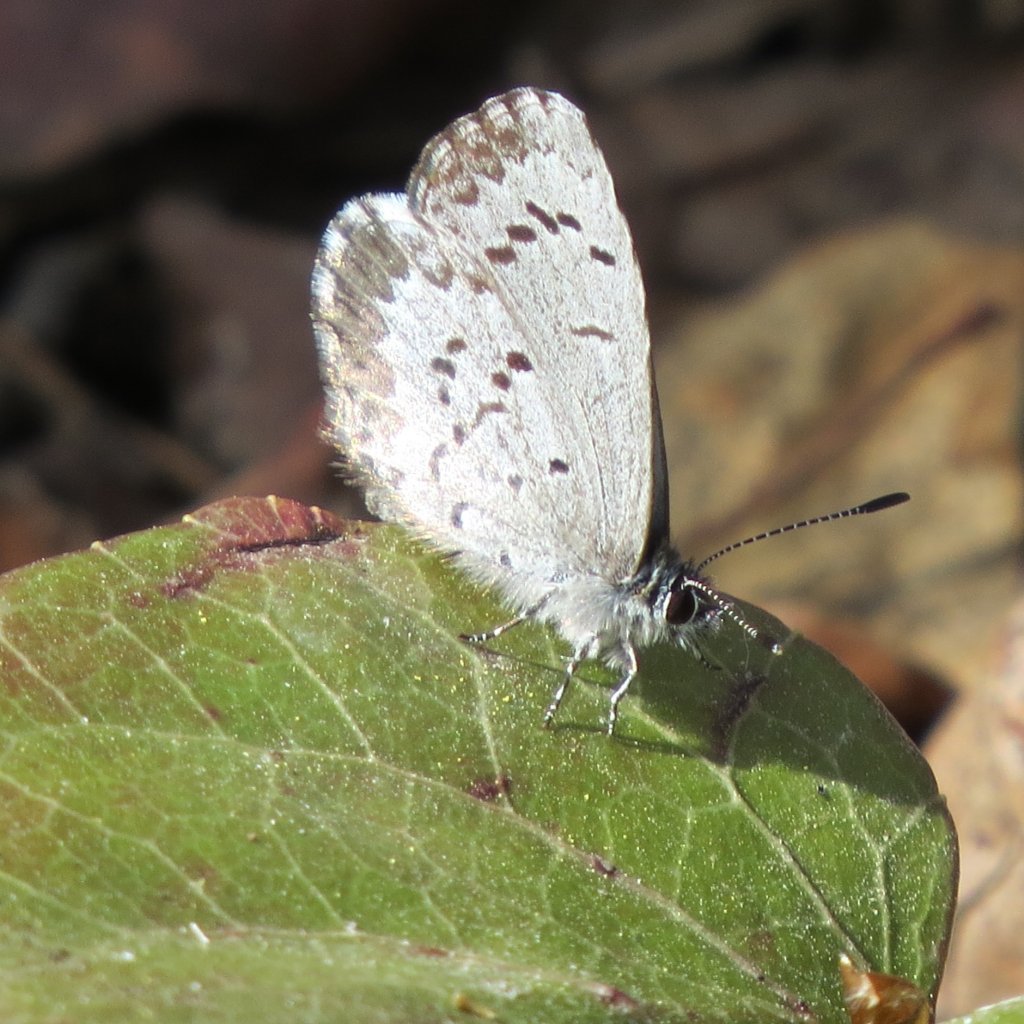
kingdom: Animalia
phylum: Arthropoda
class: Insecta
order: Lepidoptera
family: Lycaenidae
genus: Celastrina
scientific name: Celastrina lucia
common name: Northern Spring Azure
